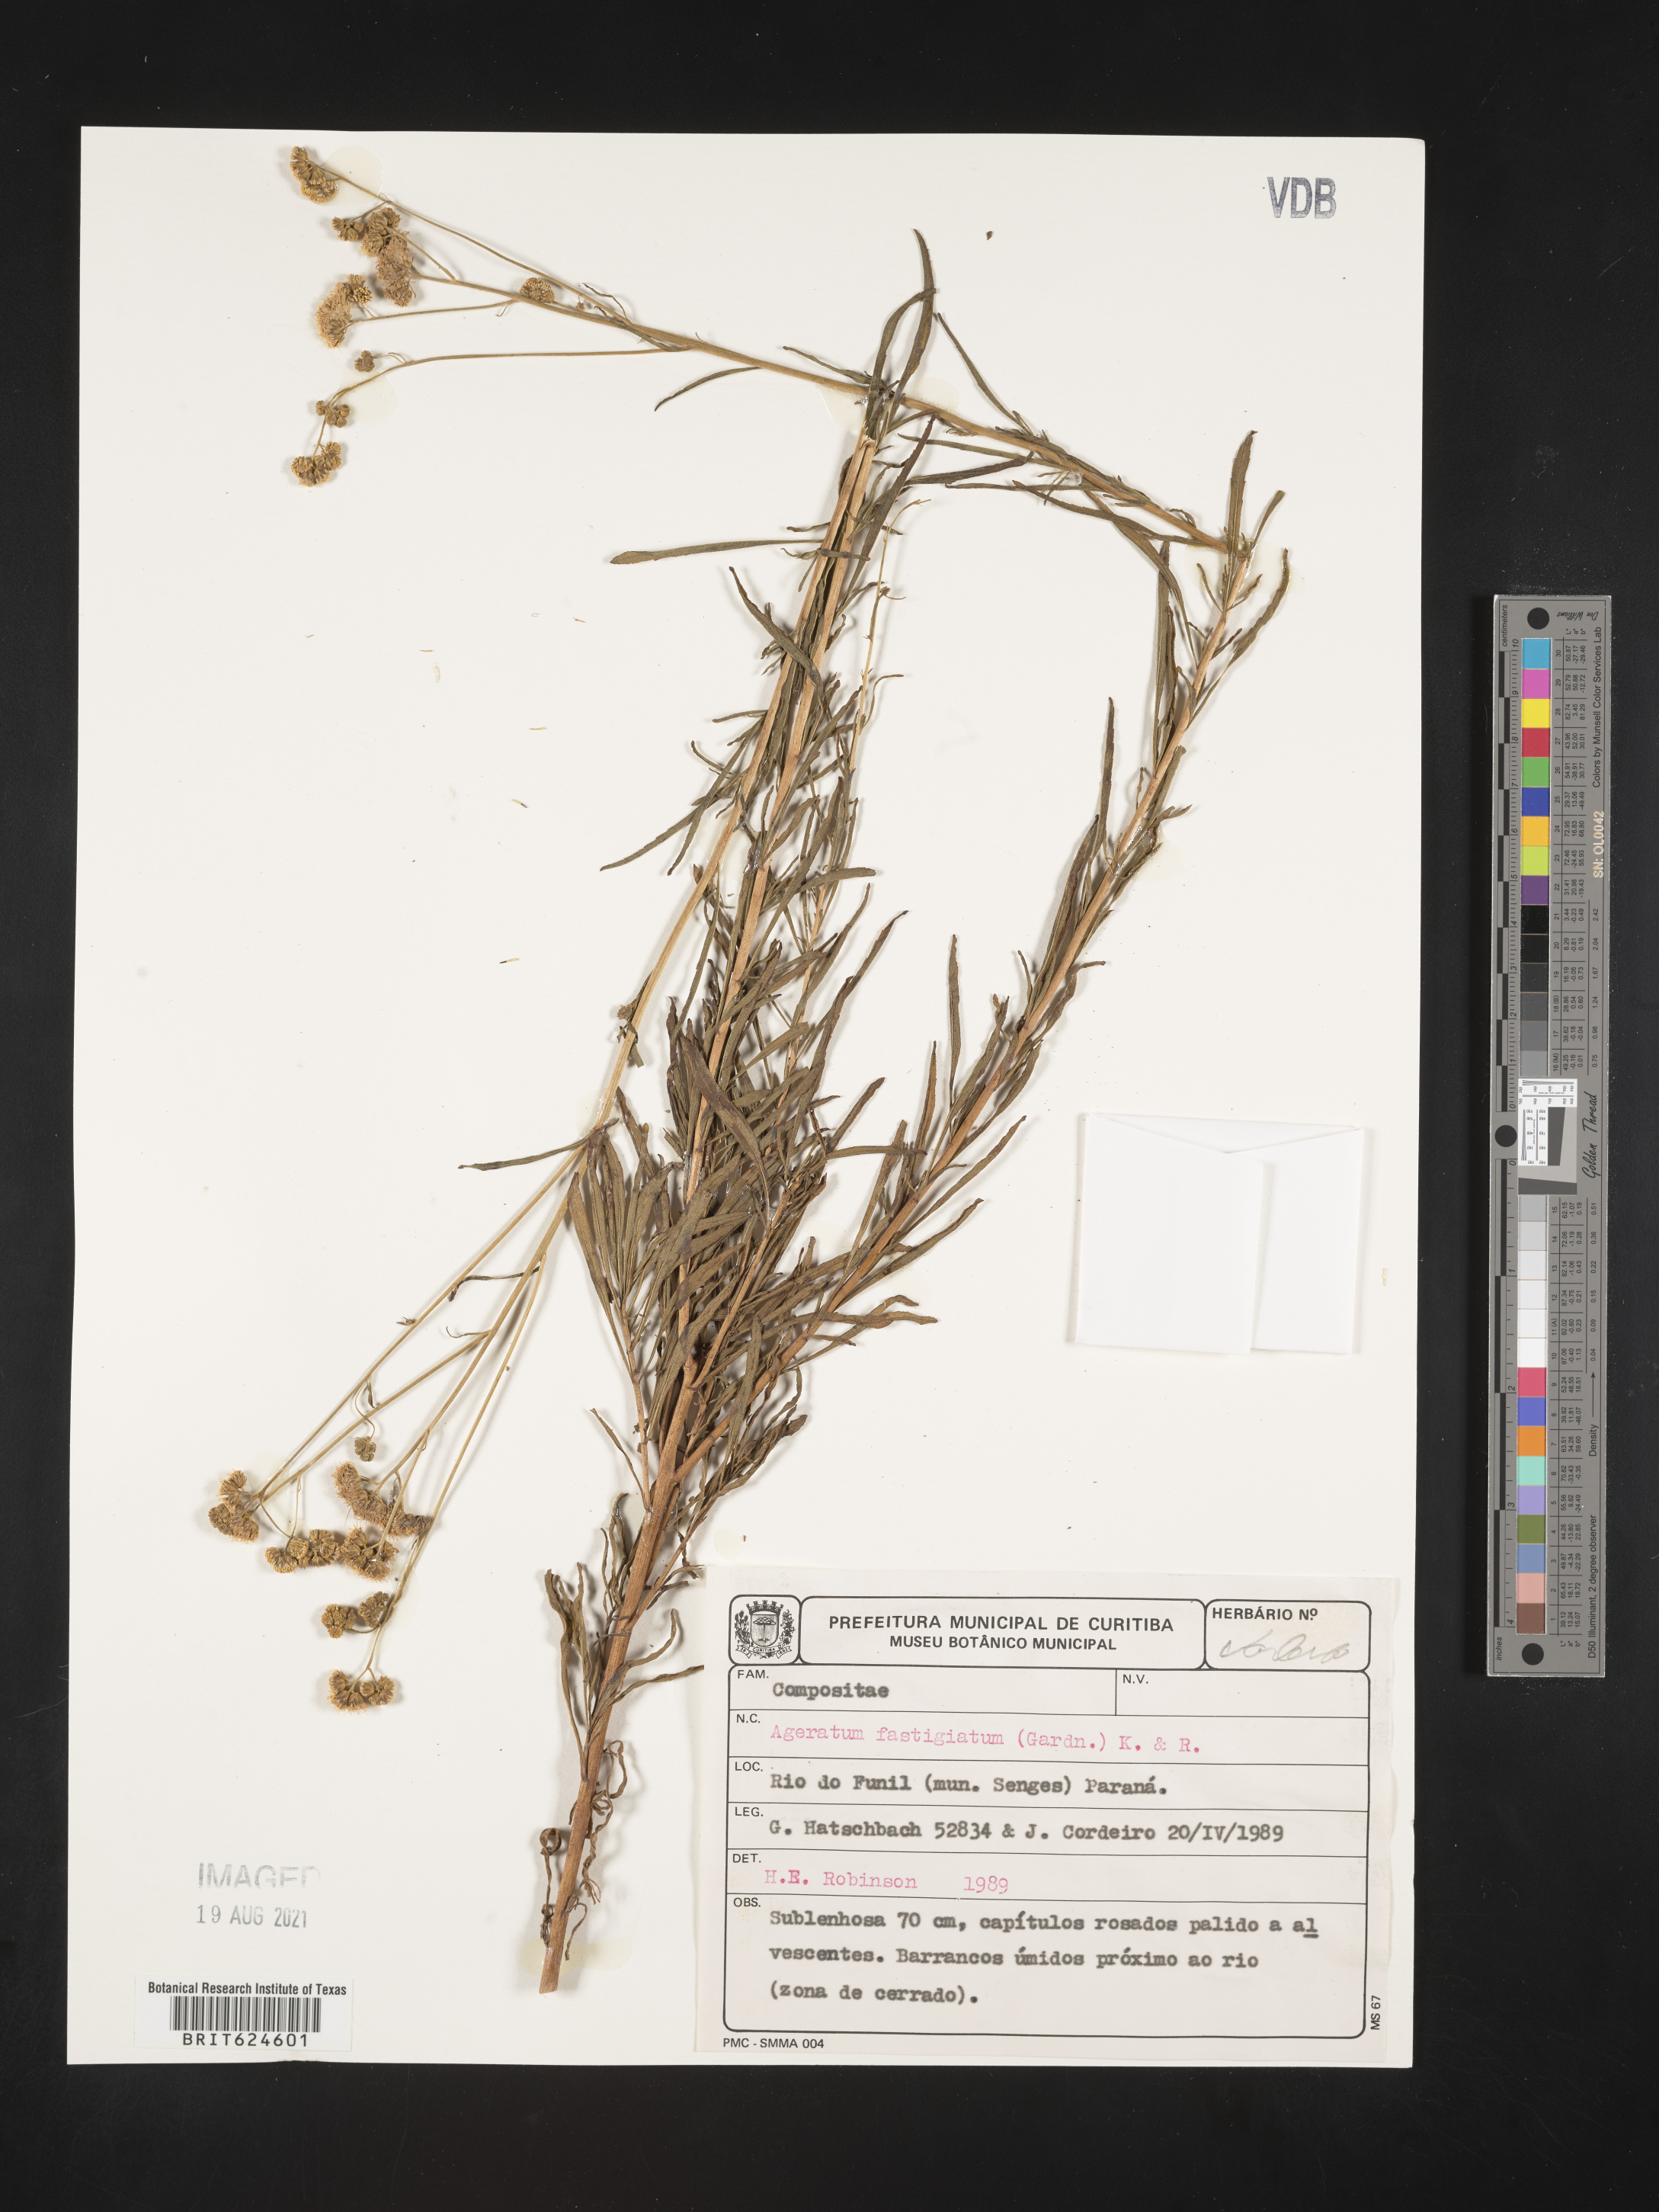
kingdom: Plantae
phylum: Tracheophyta
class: Magnoliopsida
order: Asterales
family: Asteraceae
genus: Ageratum
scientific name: Ageratum fastigiatum
